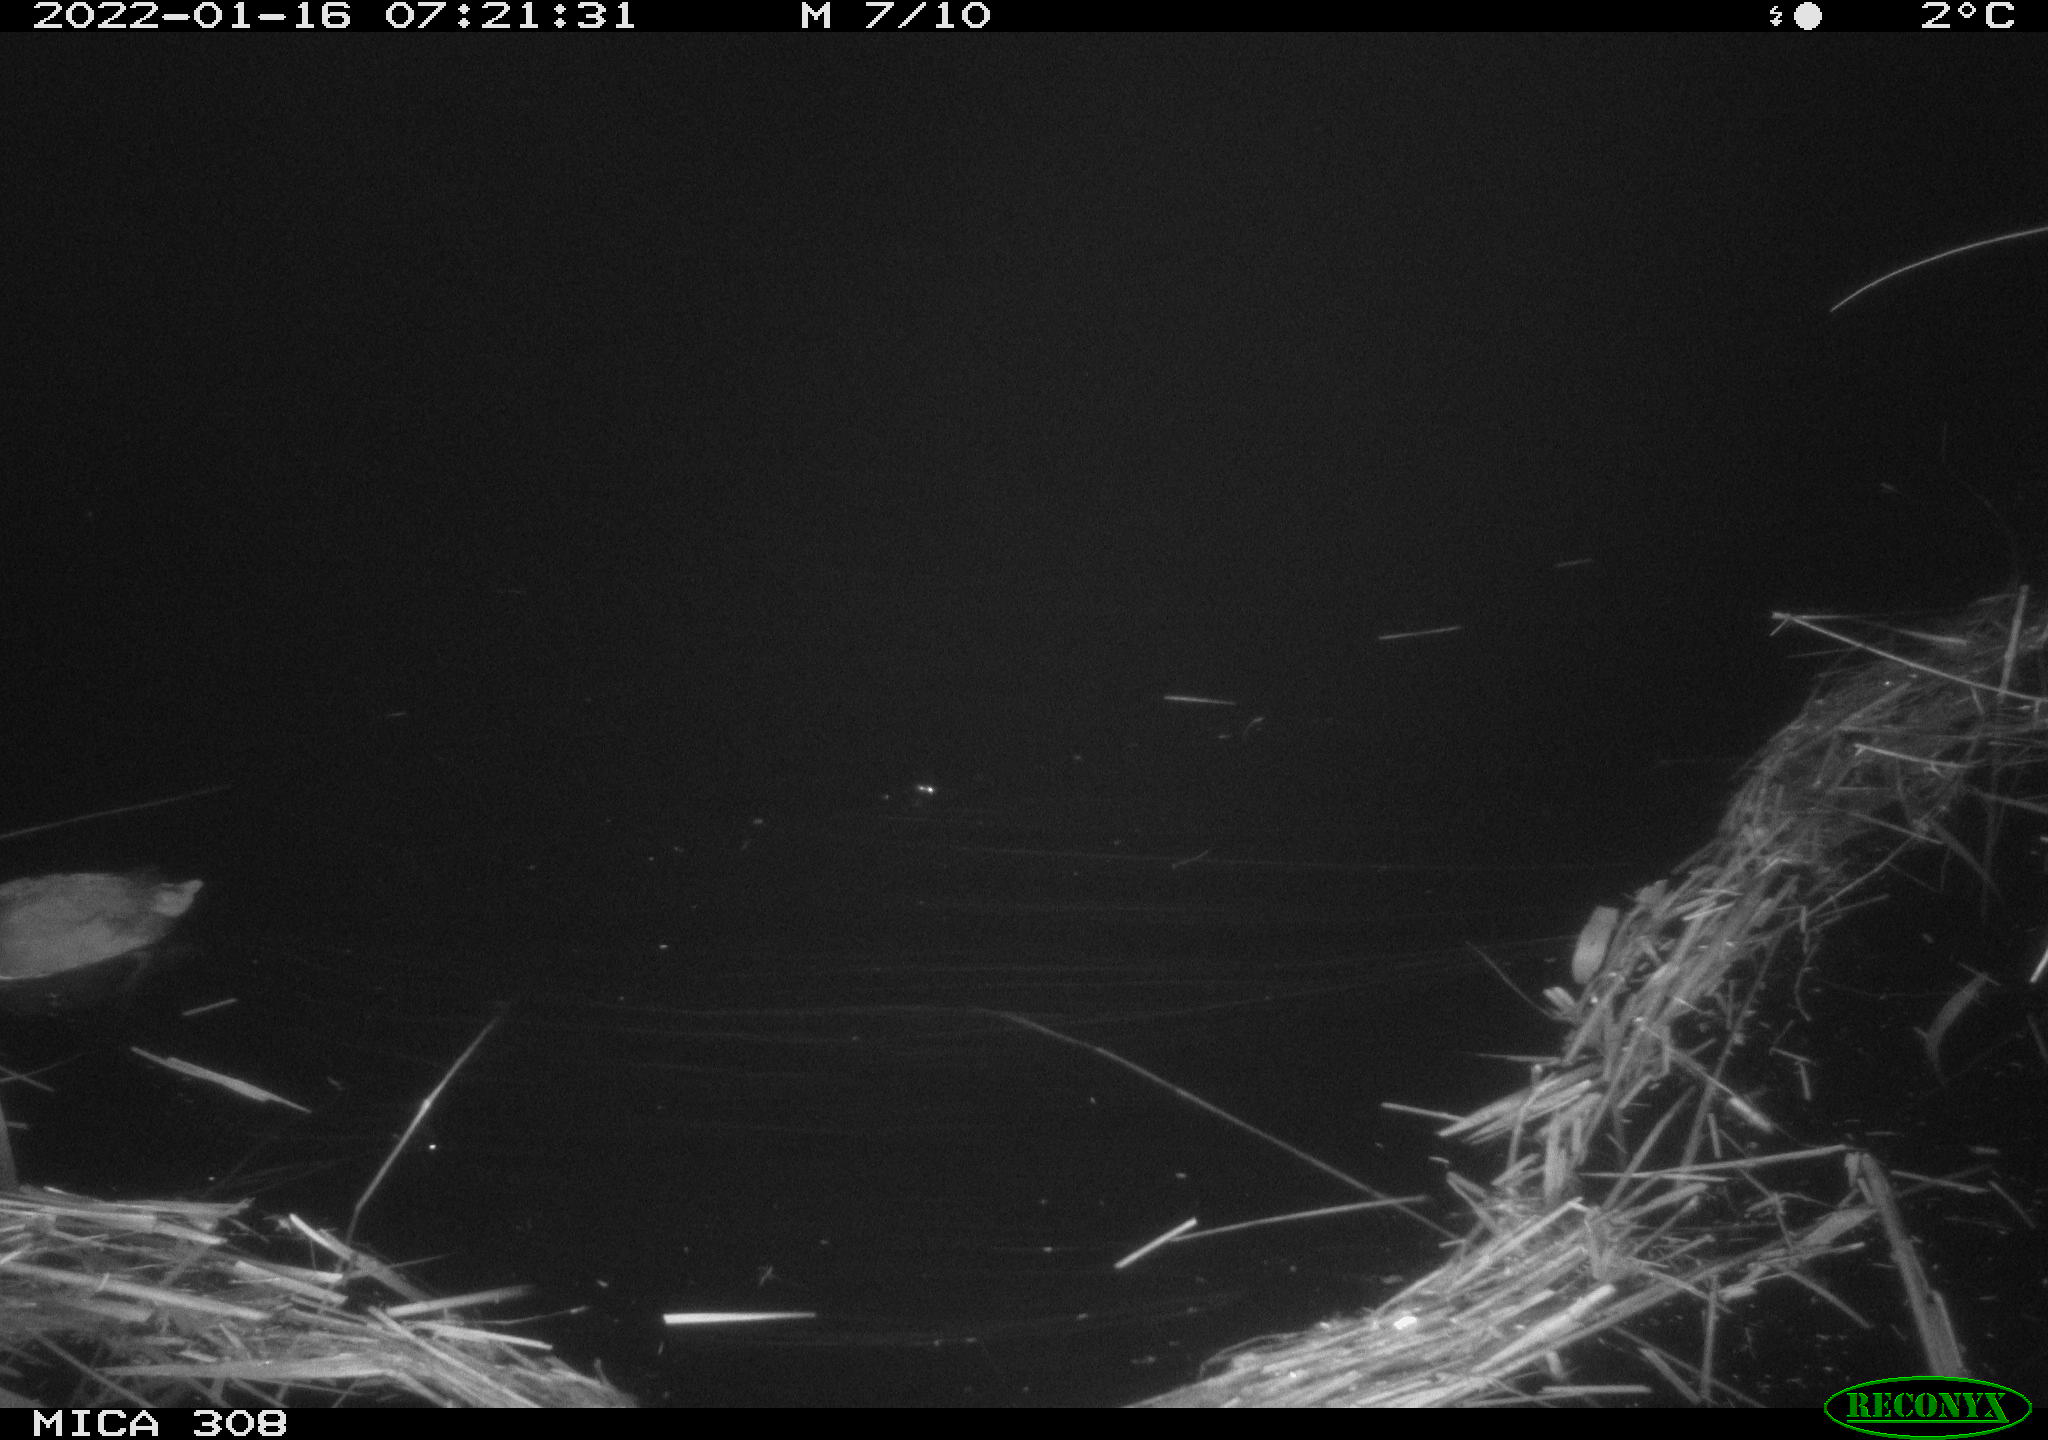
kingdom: Animalia
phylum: Chordata
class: Aves
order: Anseriformes
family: Anatidae
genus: Anas
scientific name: Anas
